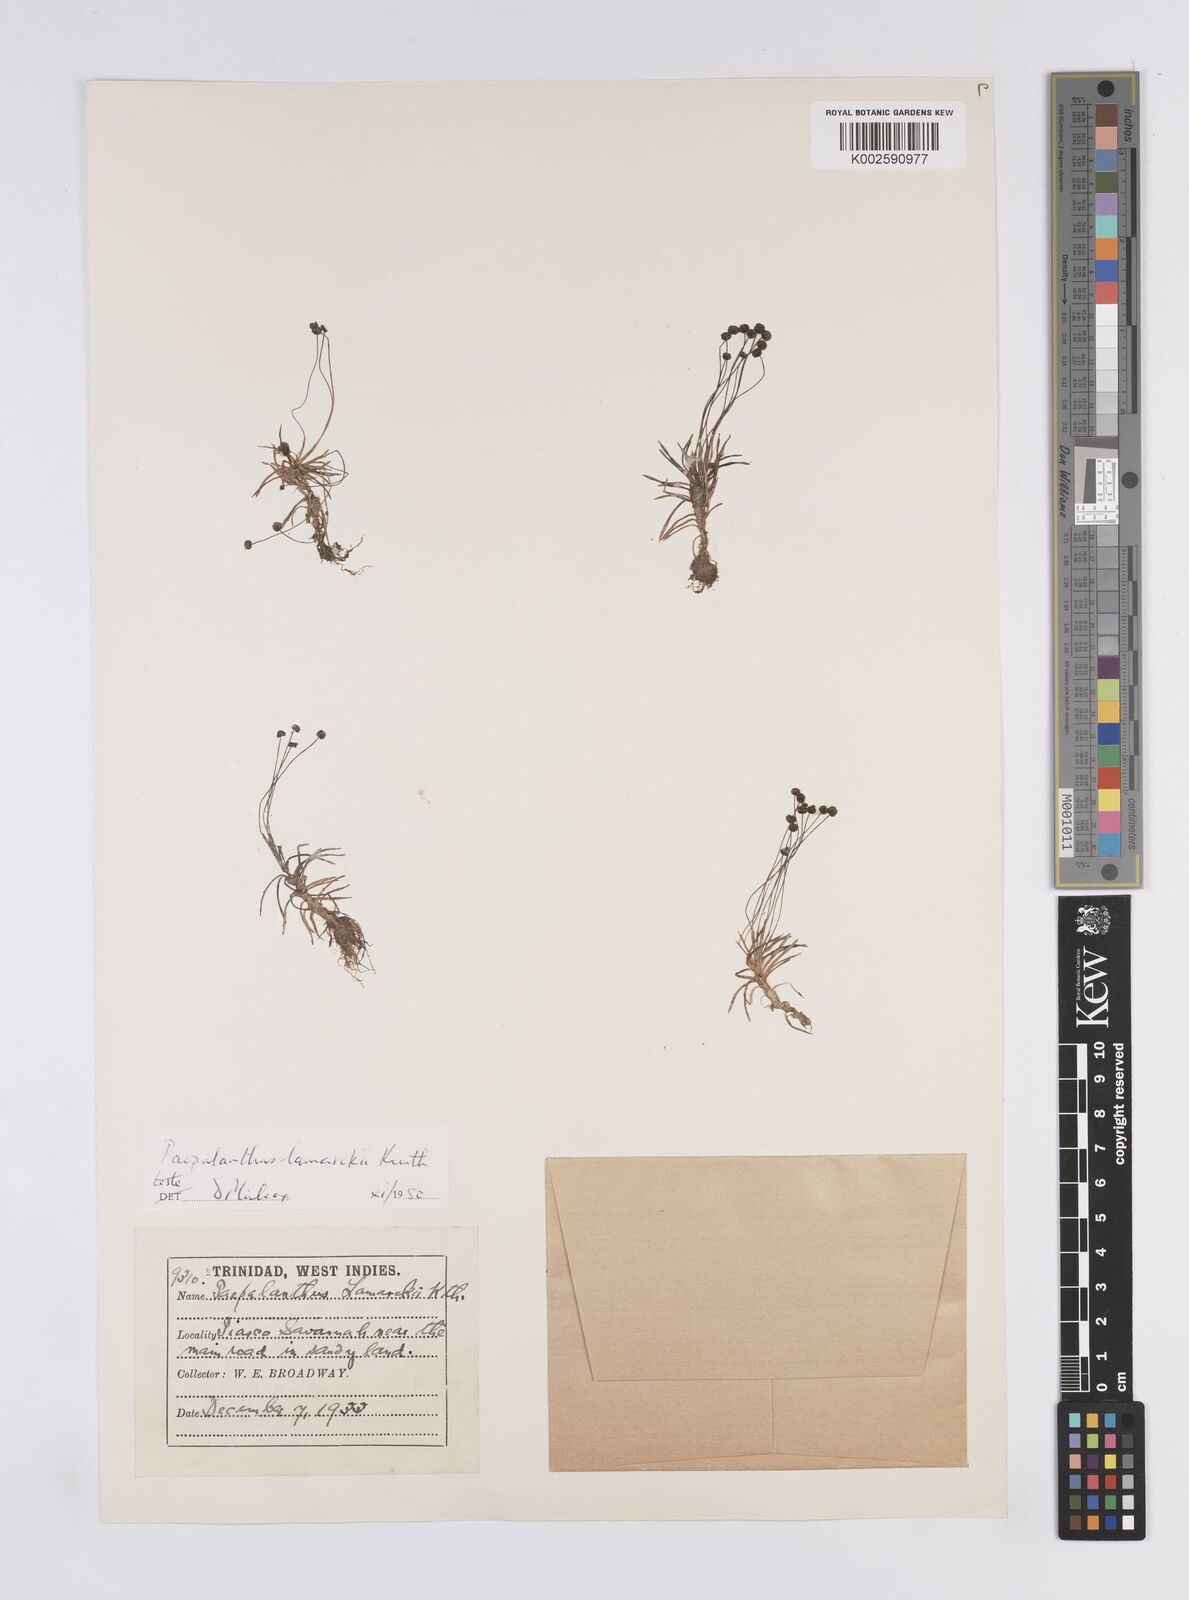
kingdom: Plantae
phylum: Tracheophyta
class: Liliopsida
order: Poales
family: Eriocaulaceae
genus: Paepalanthus
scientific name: Paepalanthus lamarckii
